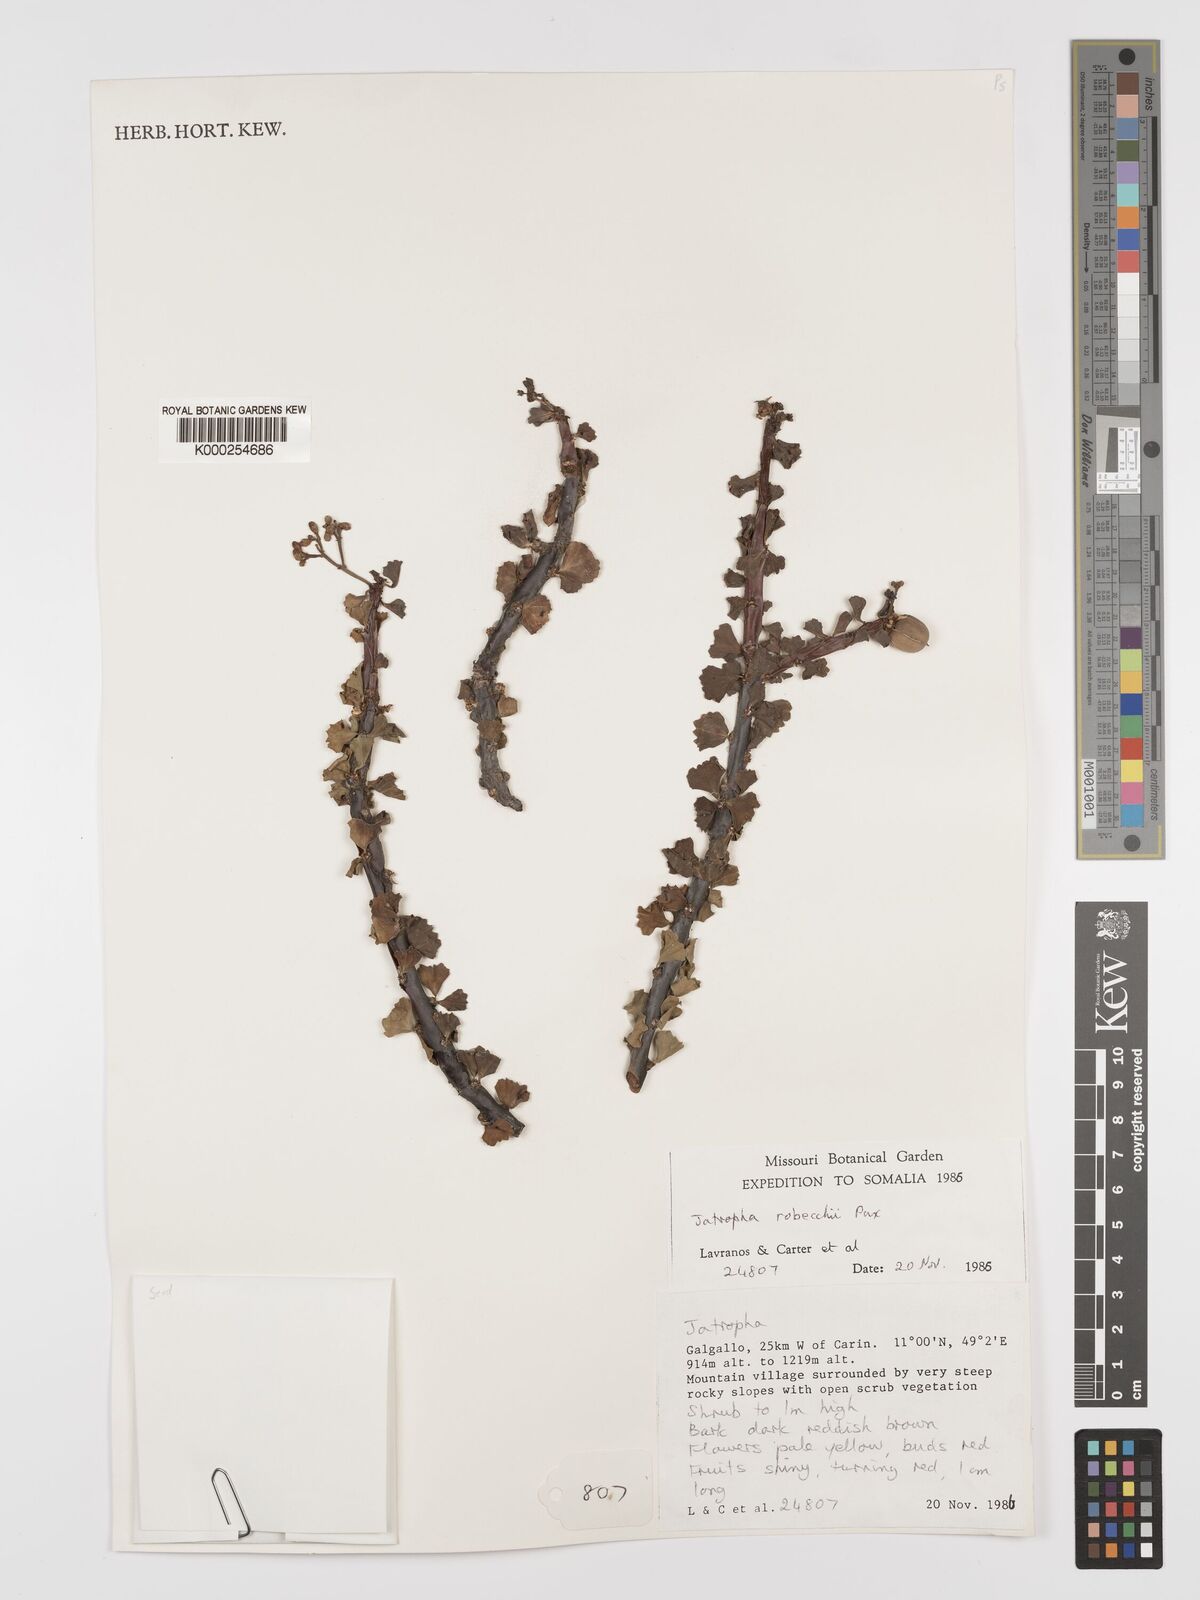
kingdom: Plantae
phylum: Tracheophyta
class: Magnoliopsida
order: Malpighiales
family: Euphorbiaceae
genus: Jatropha
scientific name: Jatropha robecchii
